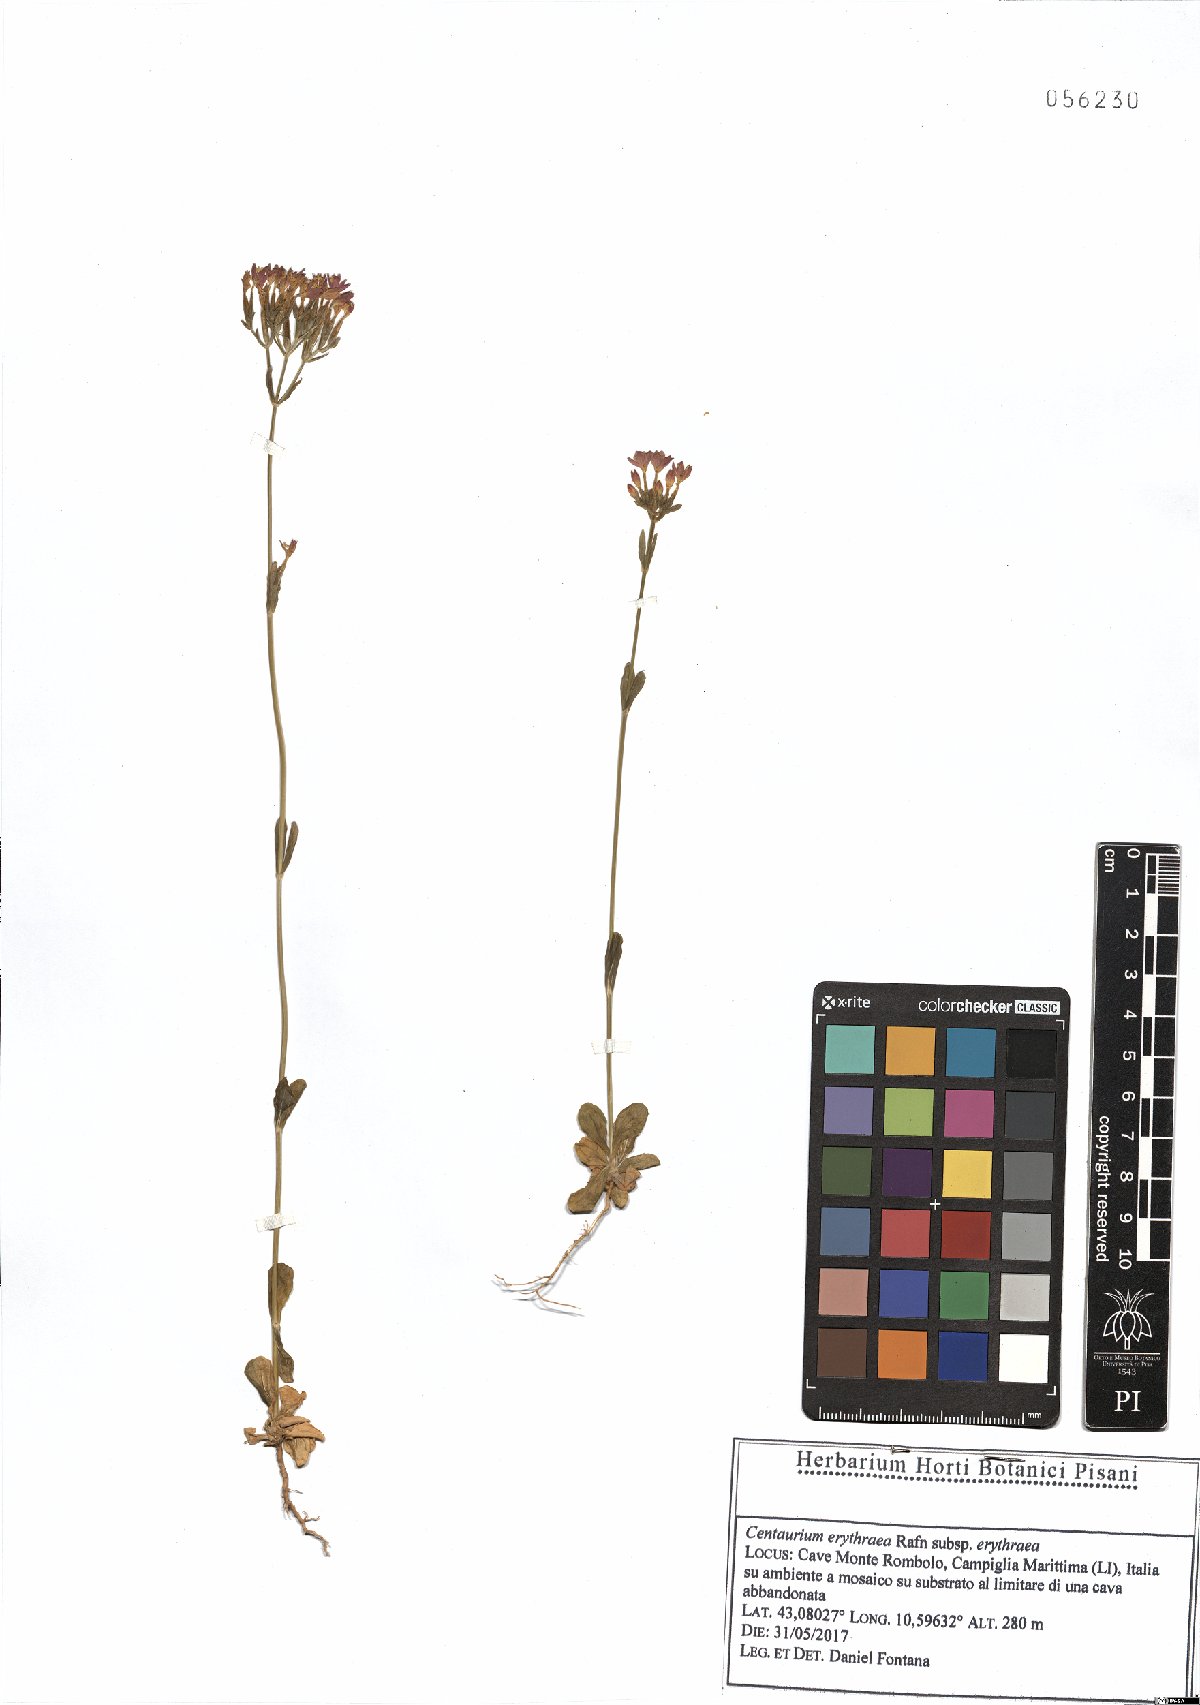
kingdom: Plantae
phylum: Tracheophyta
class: Magnoliopsida
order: Gentianales
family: Gentianaceae
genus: Centaurium
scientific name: Centaurium erythraea
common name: Common centaury
